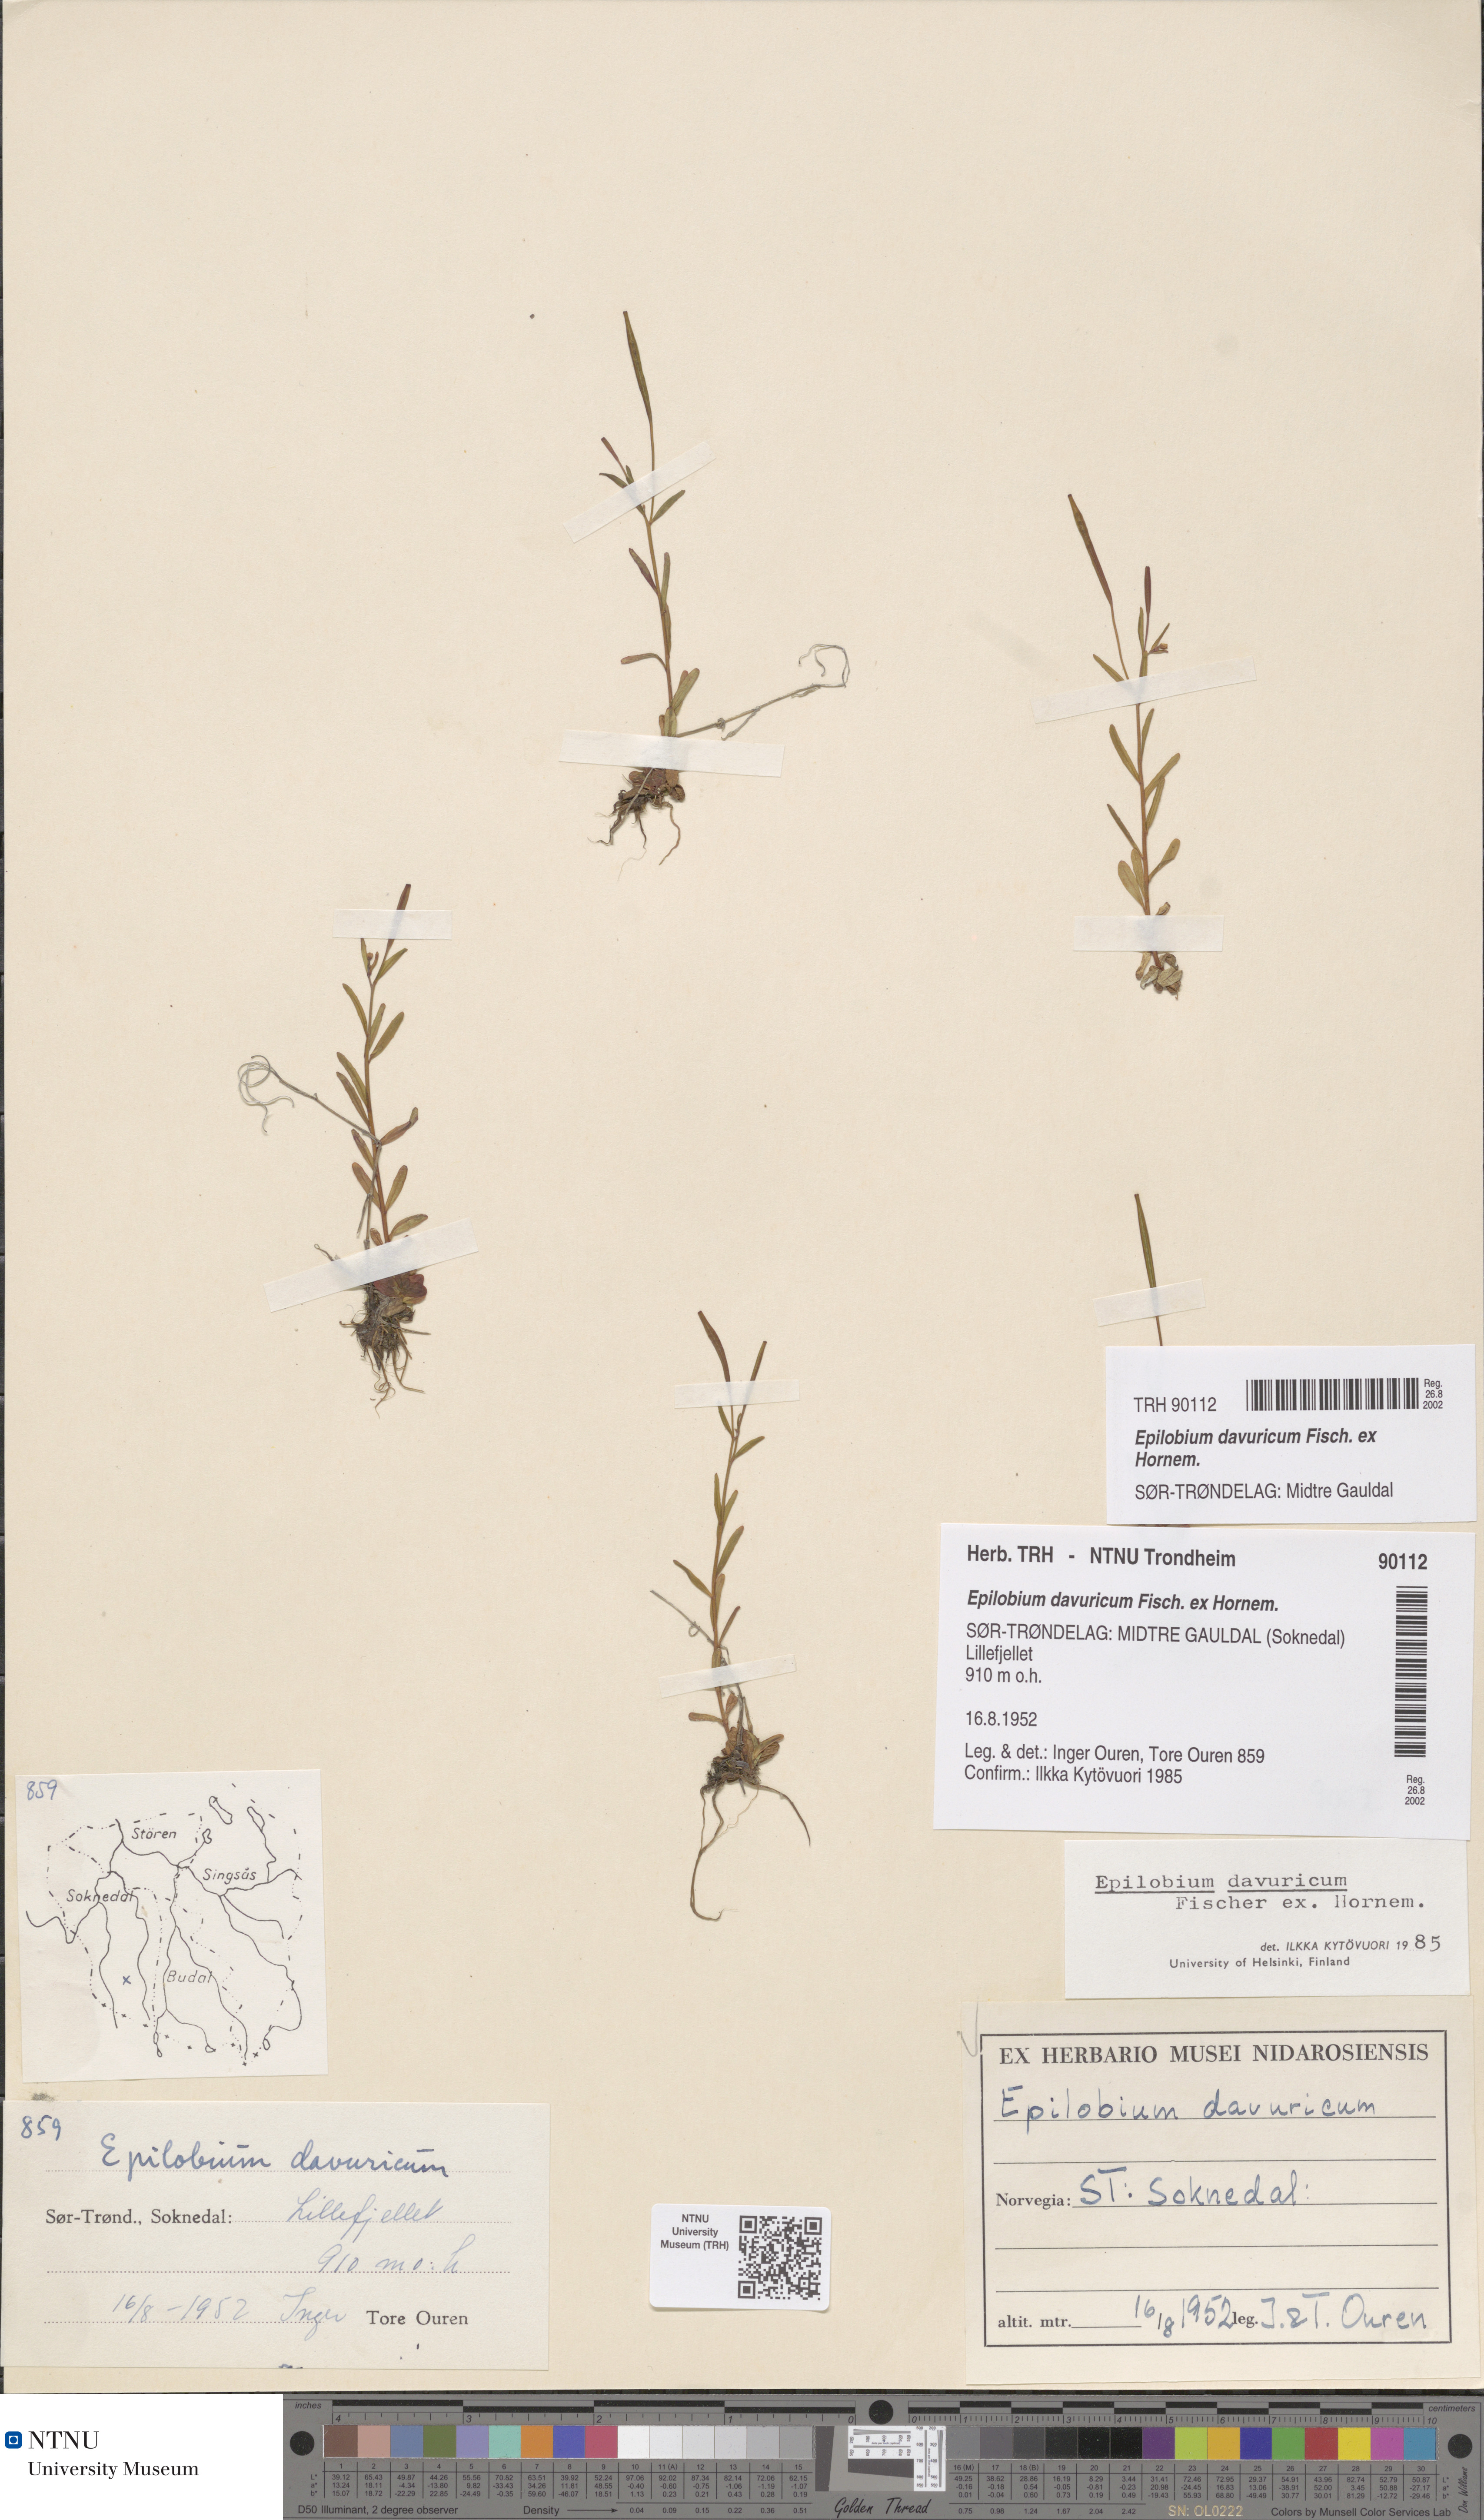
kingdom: Plantae
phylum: Tracheophyta
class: Magnoliopsida
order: Myrtales
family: Onagraceae
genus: Epilobium
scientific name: Epilobium davuricum
